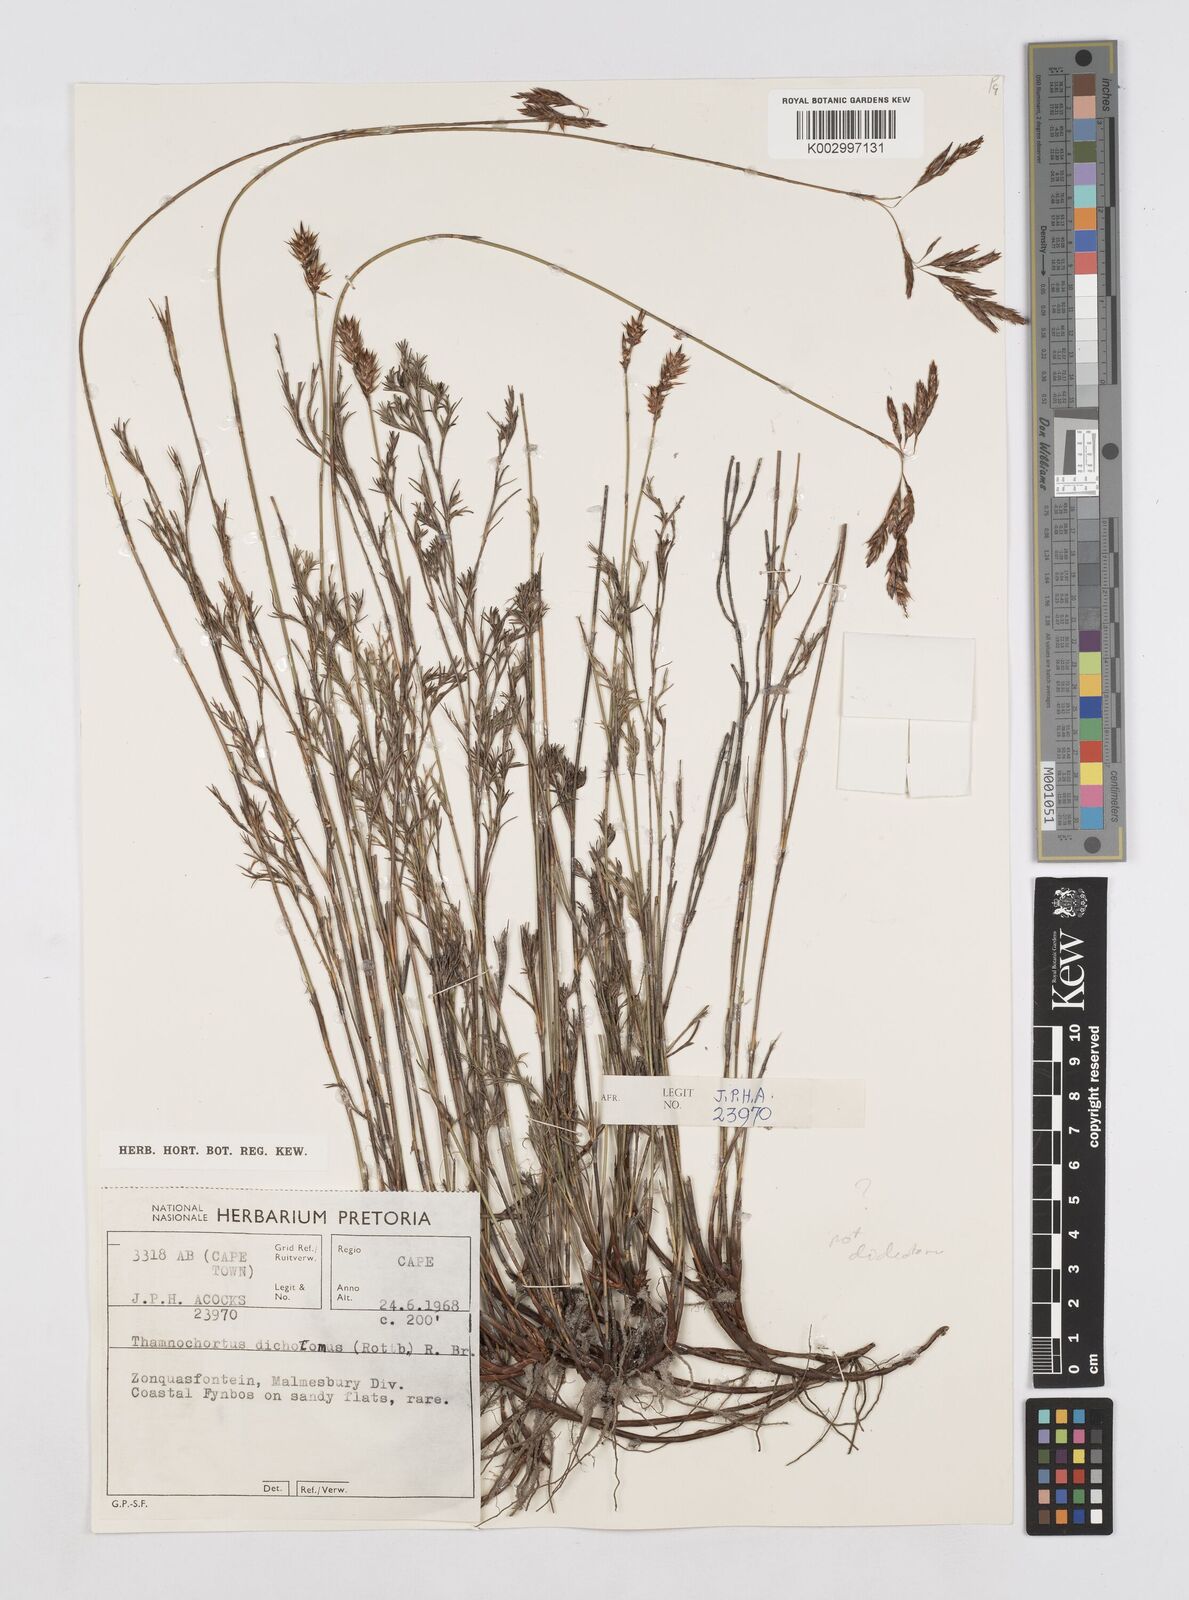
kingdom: Plantae
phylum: Tracheophyta
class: Liliopsida
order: Poales
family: Restionaceae
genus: Thamnochortus
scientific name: Thamnochortus obtusus
